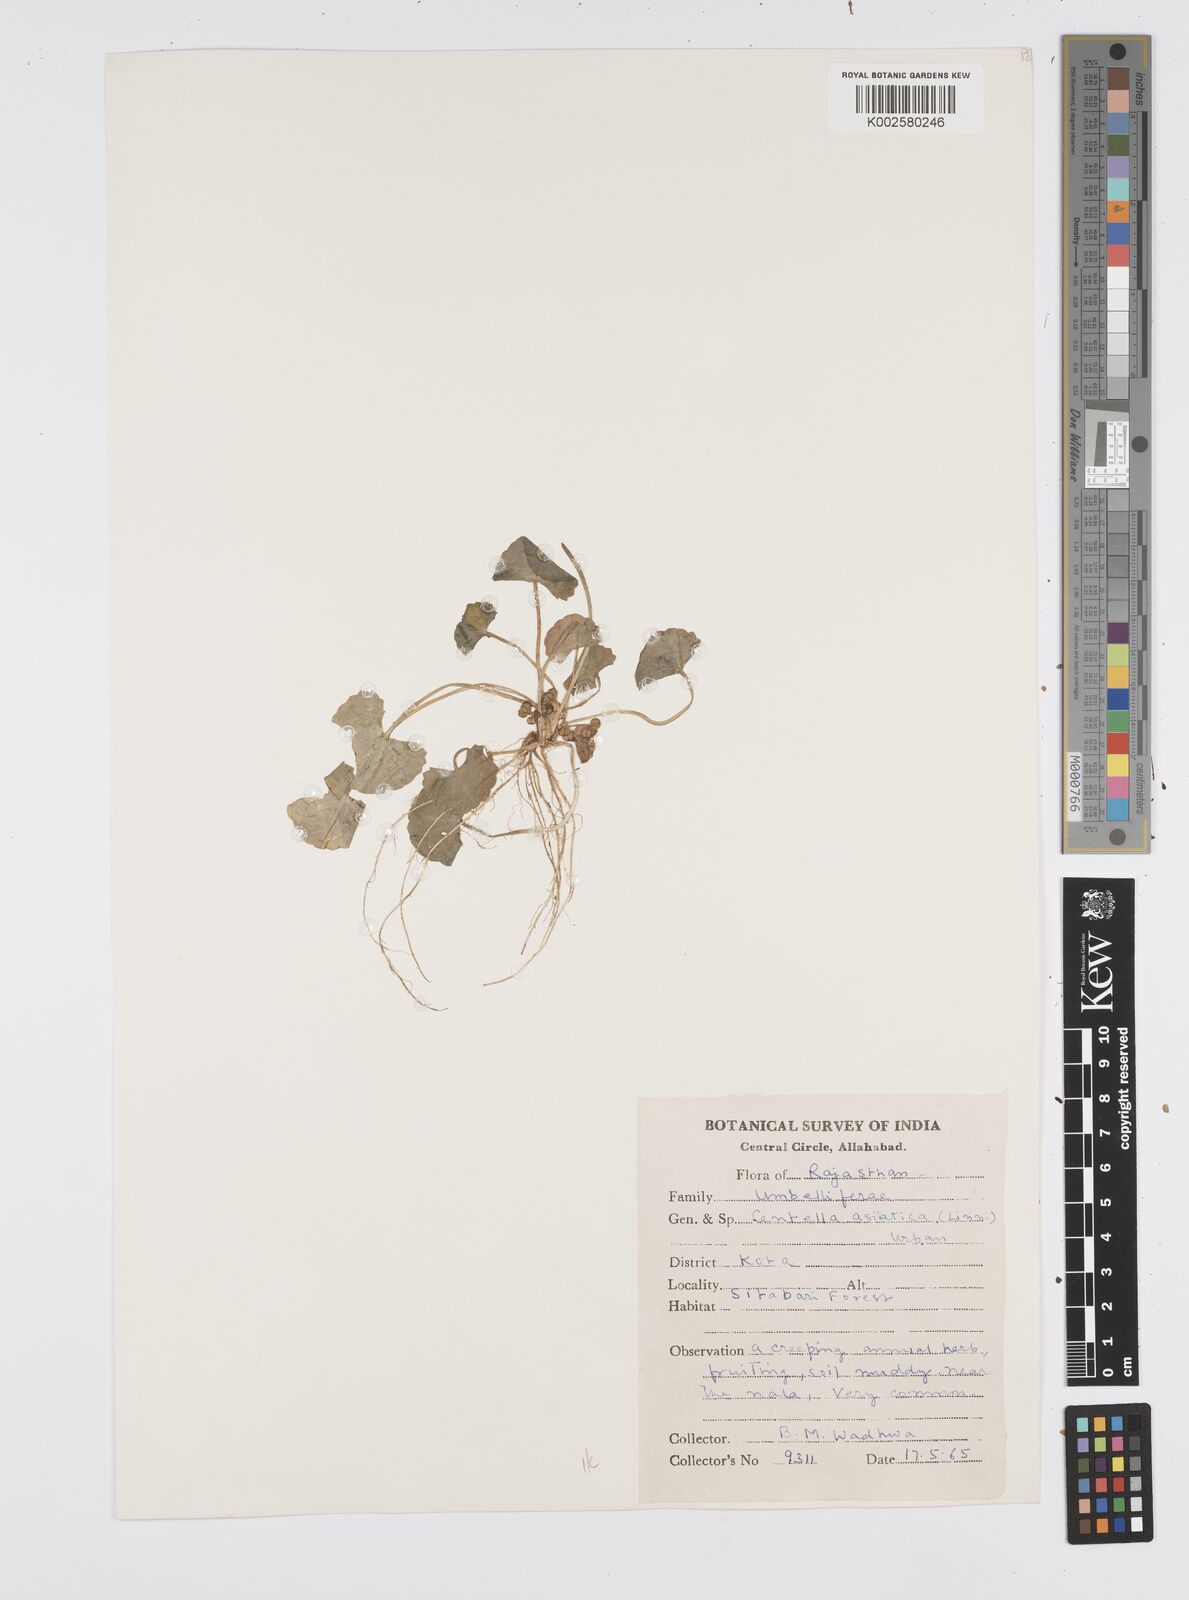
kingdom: Plantae
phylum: Tracheophyta
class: Magnoliopsida
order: Apiales
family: Apiaceae
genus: Centella
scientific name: Centella asiatica
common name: Spadeleaf
